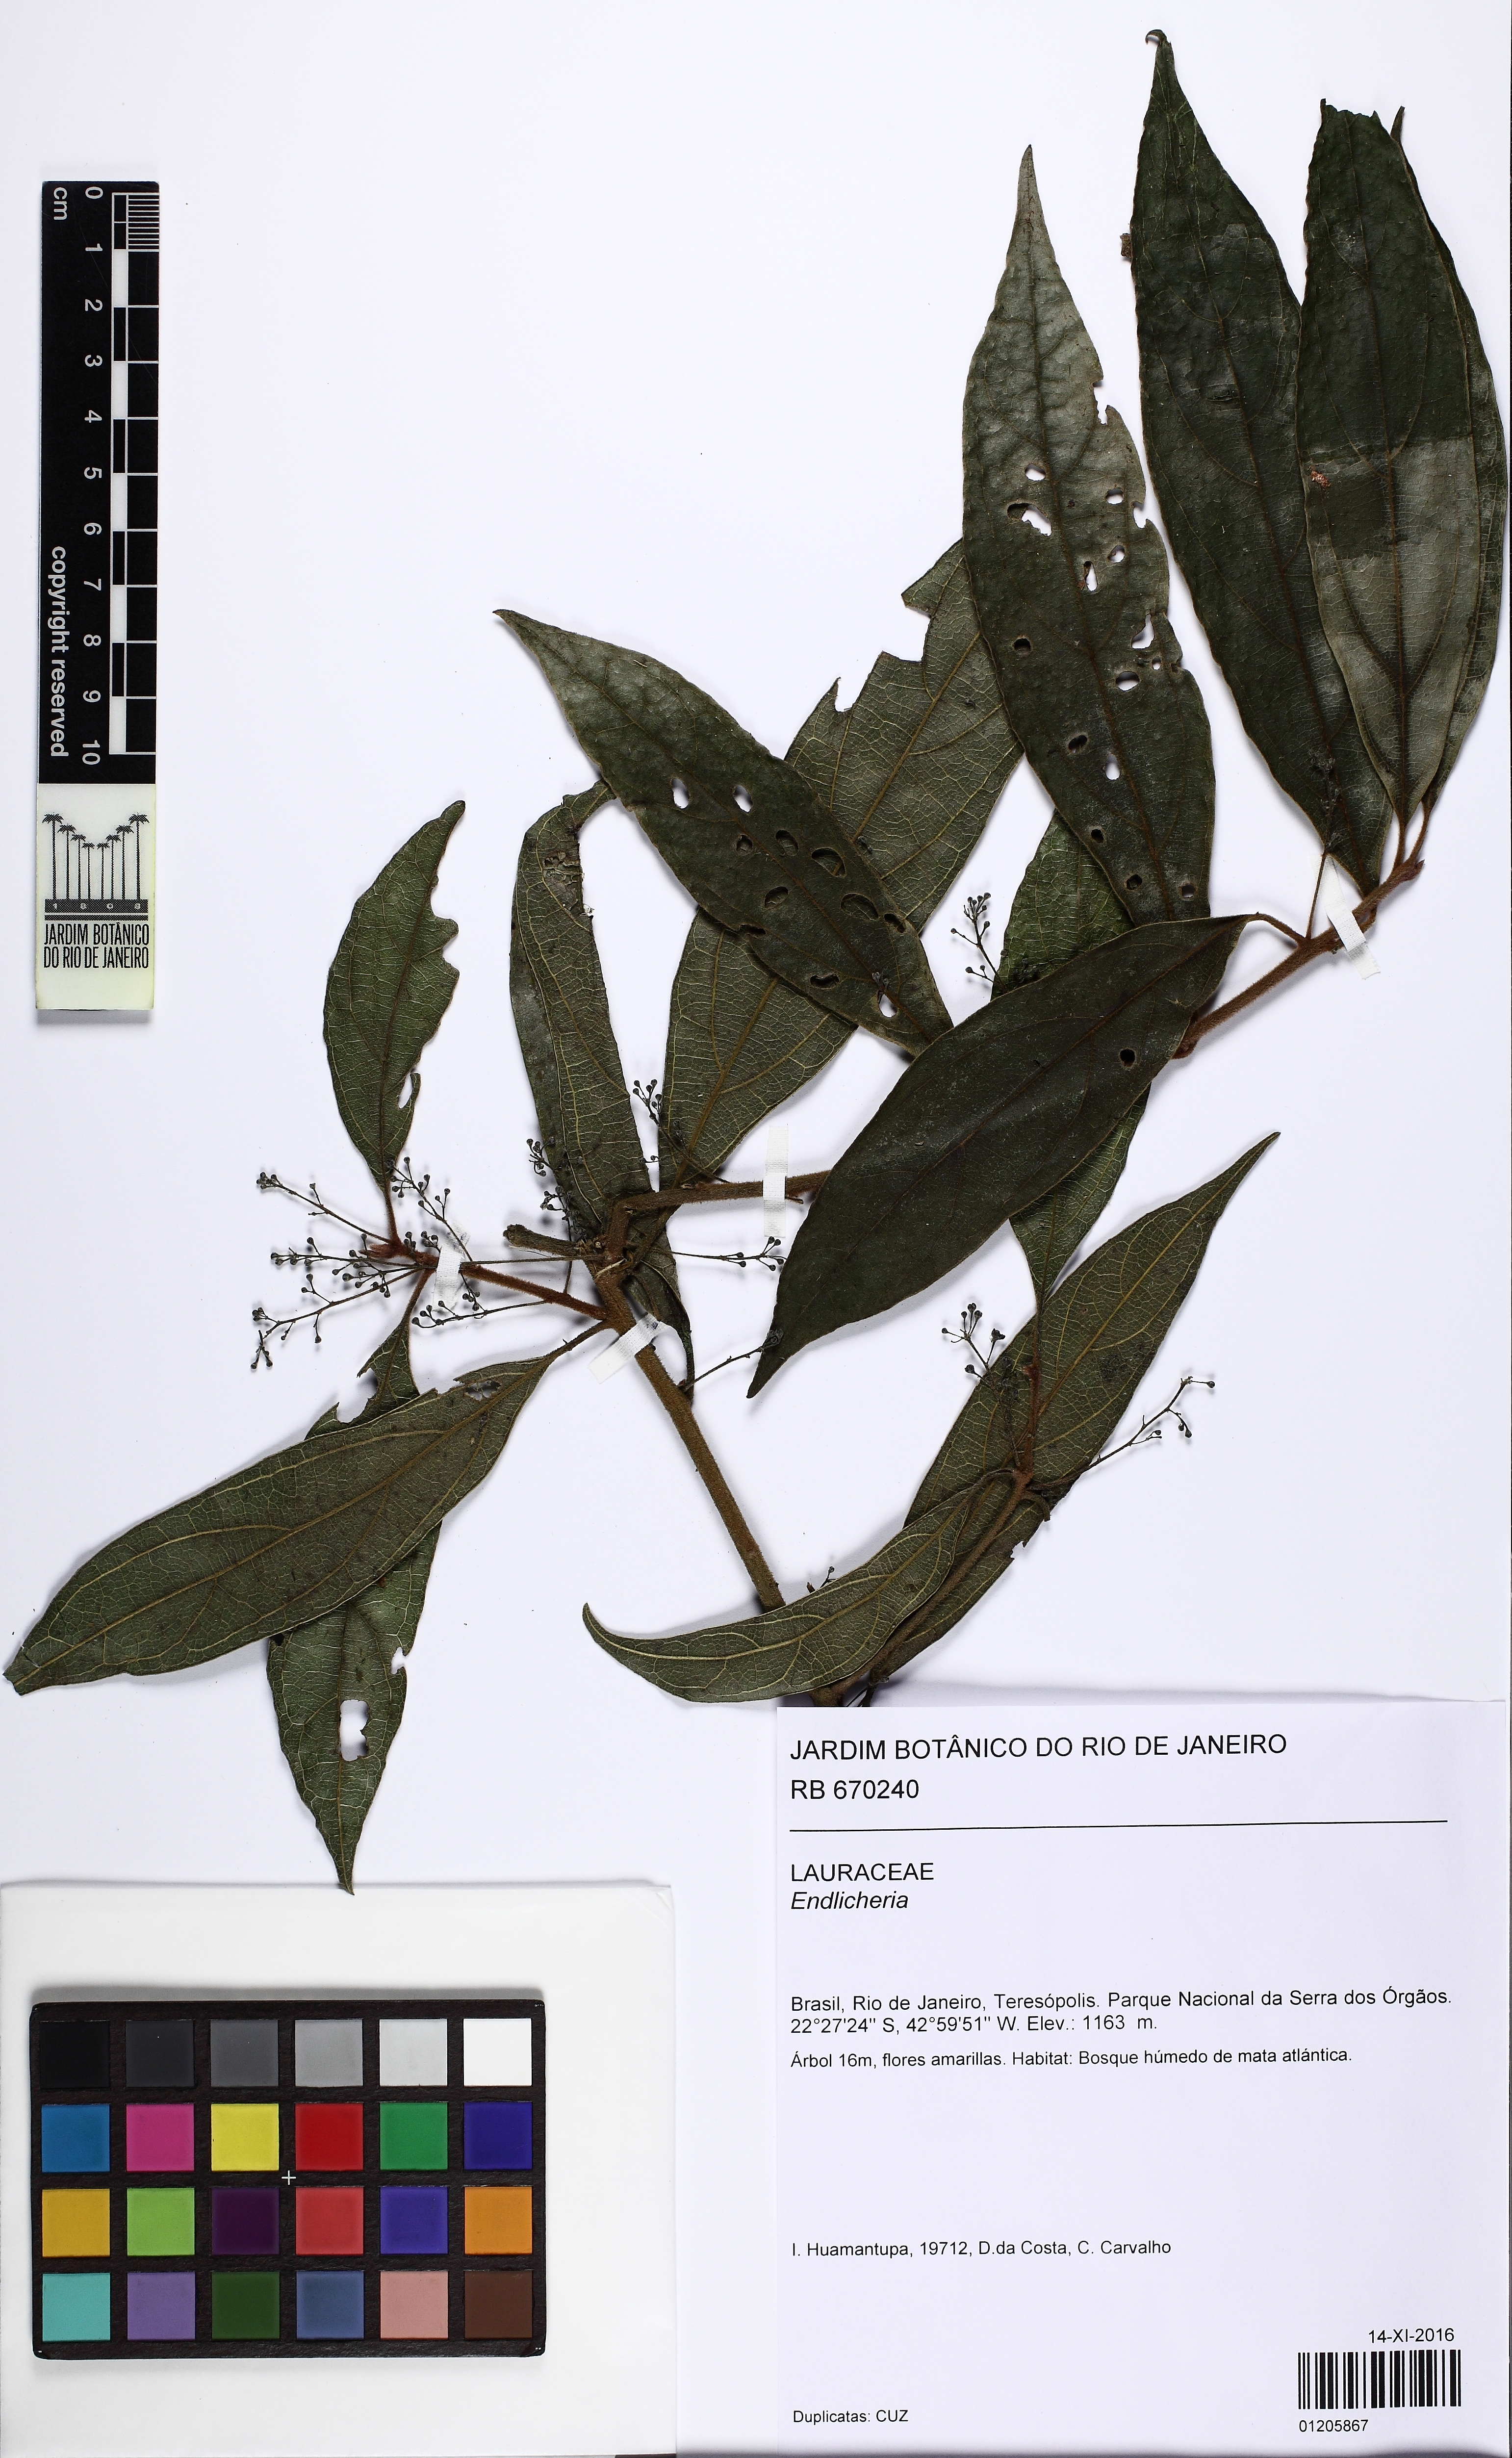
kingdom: Plantae
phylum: Tracheophyta
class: Magnoliopsida
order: Laurales
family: Lauraceae
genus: Endlicheria
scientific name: Endlicheria
